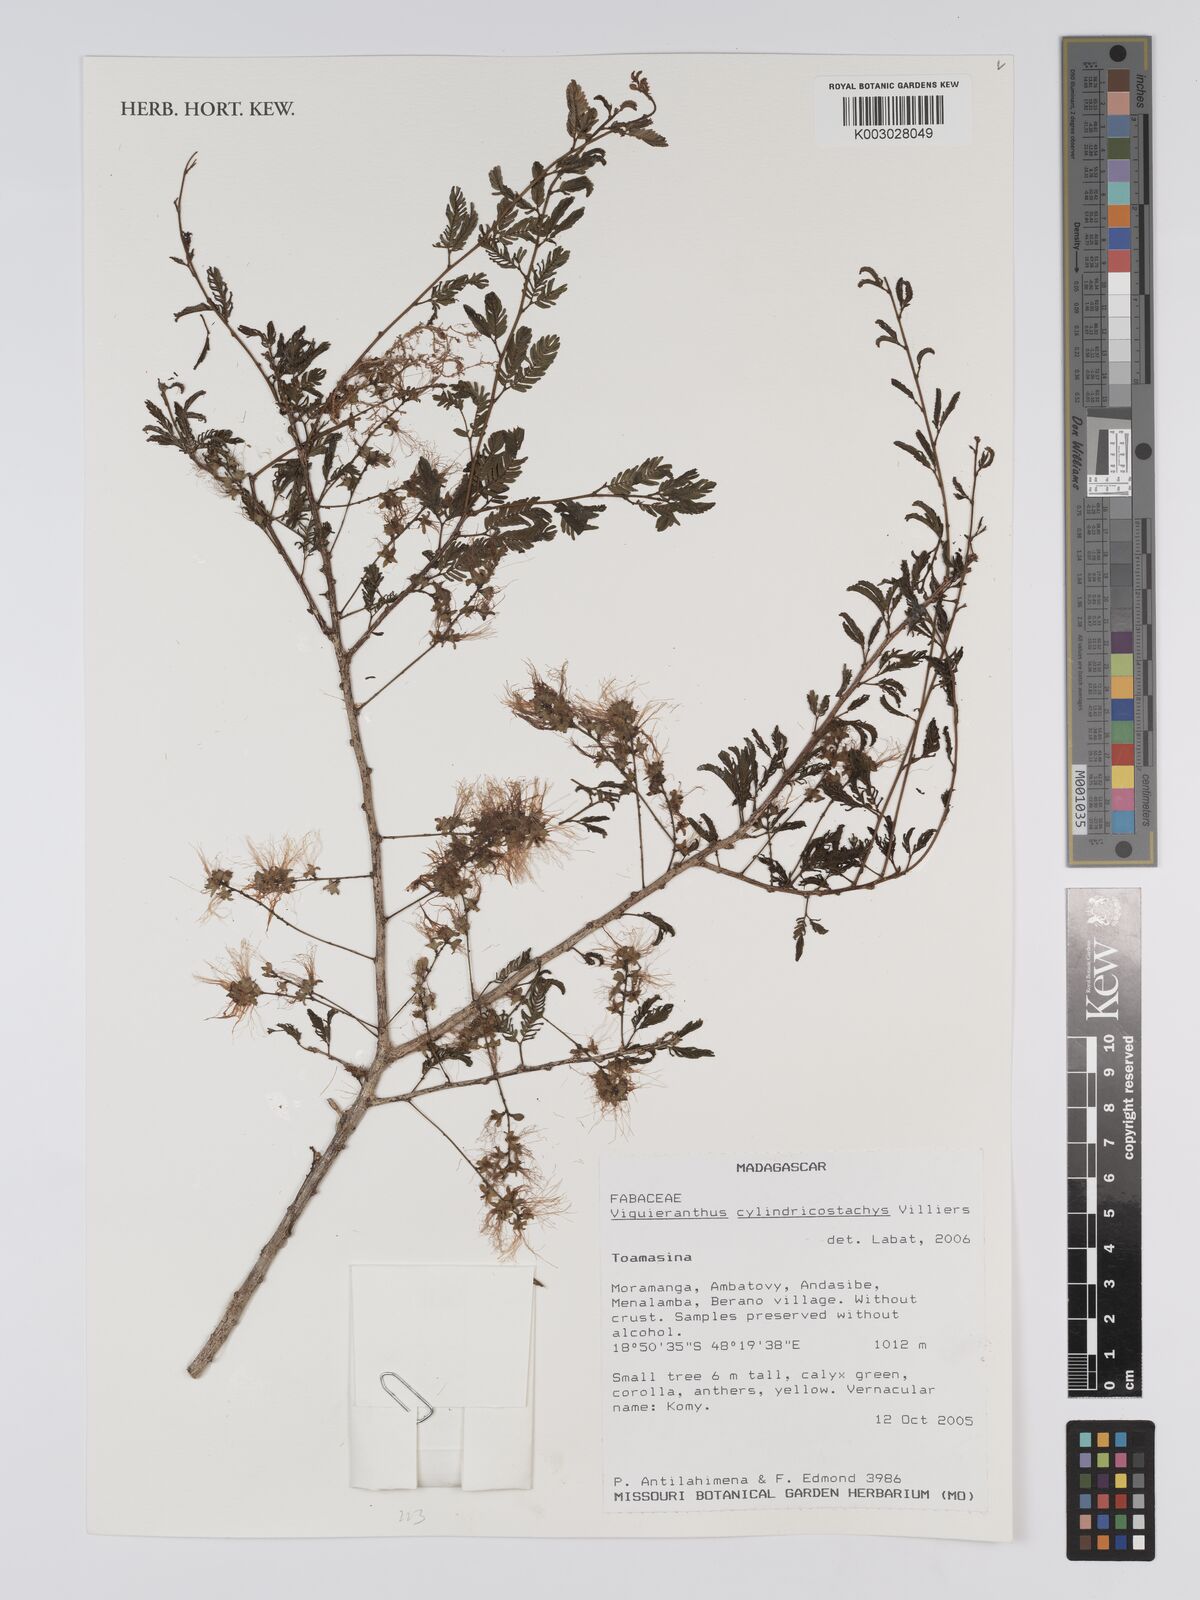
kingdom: Plantae
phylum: Tracheophyta
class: Magnoliopsida
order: Fabales
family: Fabaceae
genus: Viguieranthus
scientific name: Viguieranthus cylindricostachys
